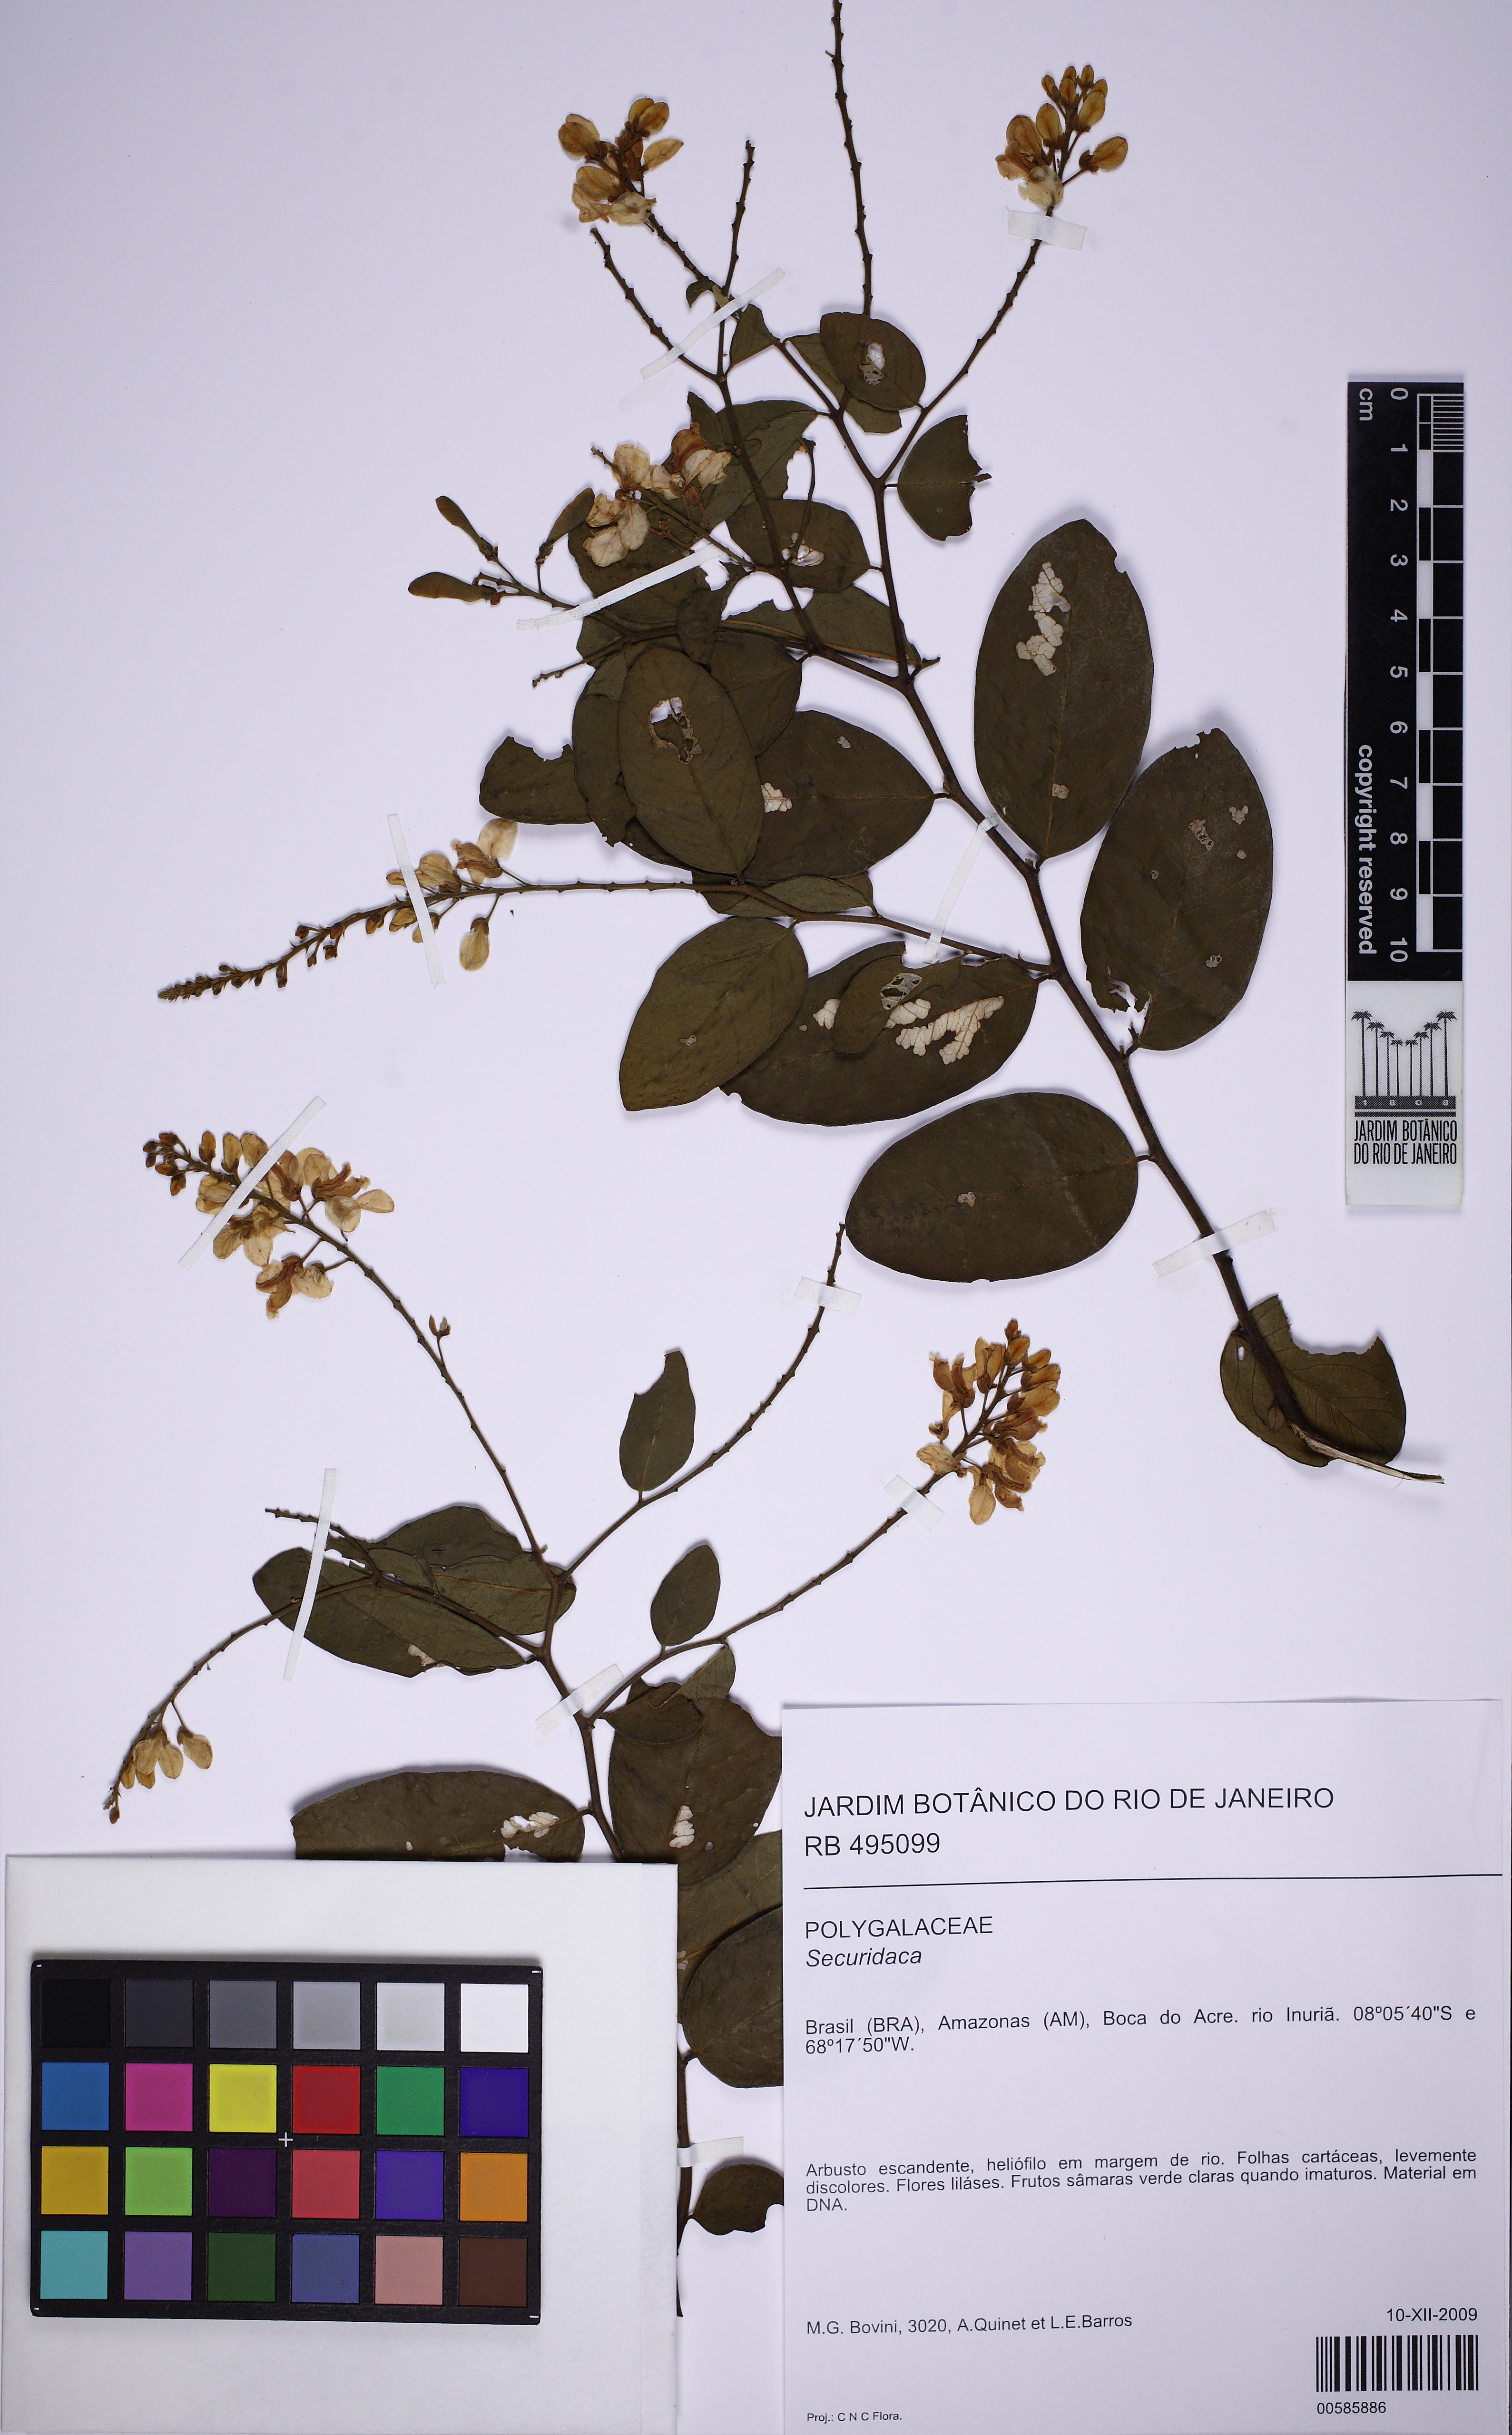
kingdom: Plantae
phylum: Tracheophyta
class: Magnoliopsida
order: Fabales
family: Polygalaceae
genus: Securidaca
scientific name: Securidaca
